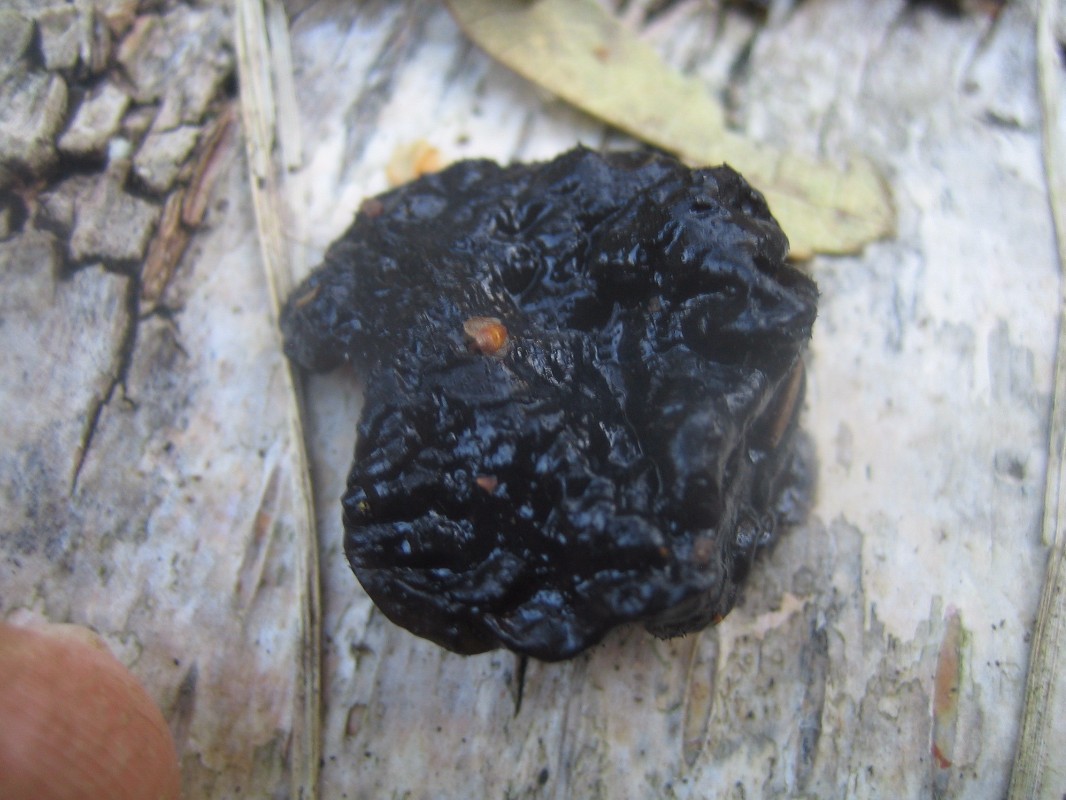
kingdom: Fungi
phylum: Basidiomycota
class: Agaricomycetes
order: Auriculariales
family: Auriculariaceae
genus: Exidia
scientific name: Exidia nigricans
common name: almindelig bævretop
